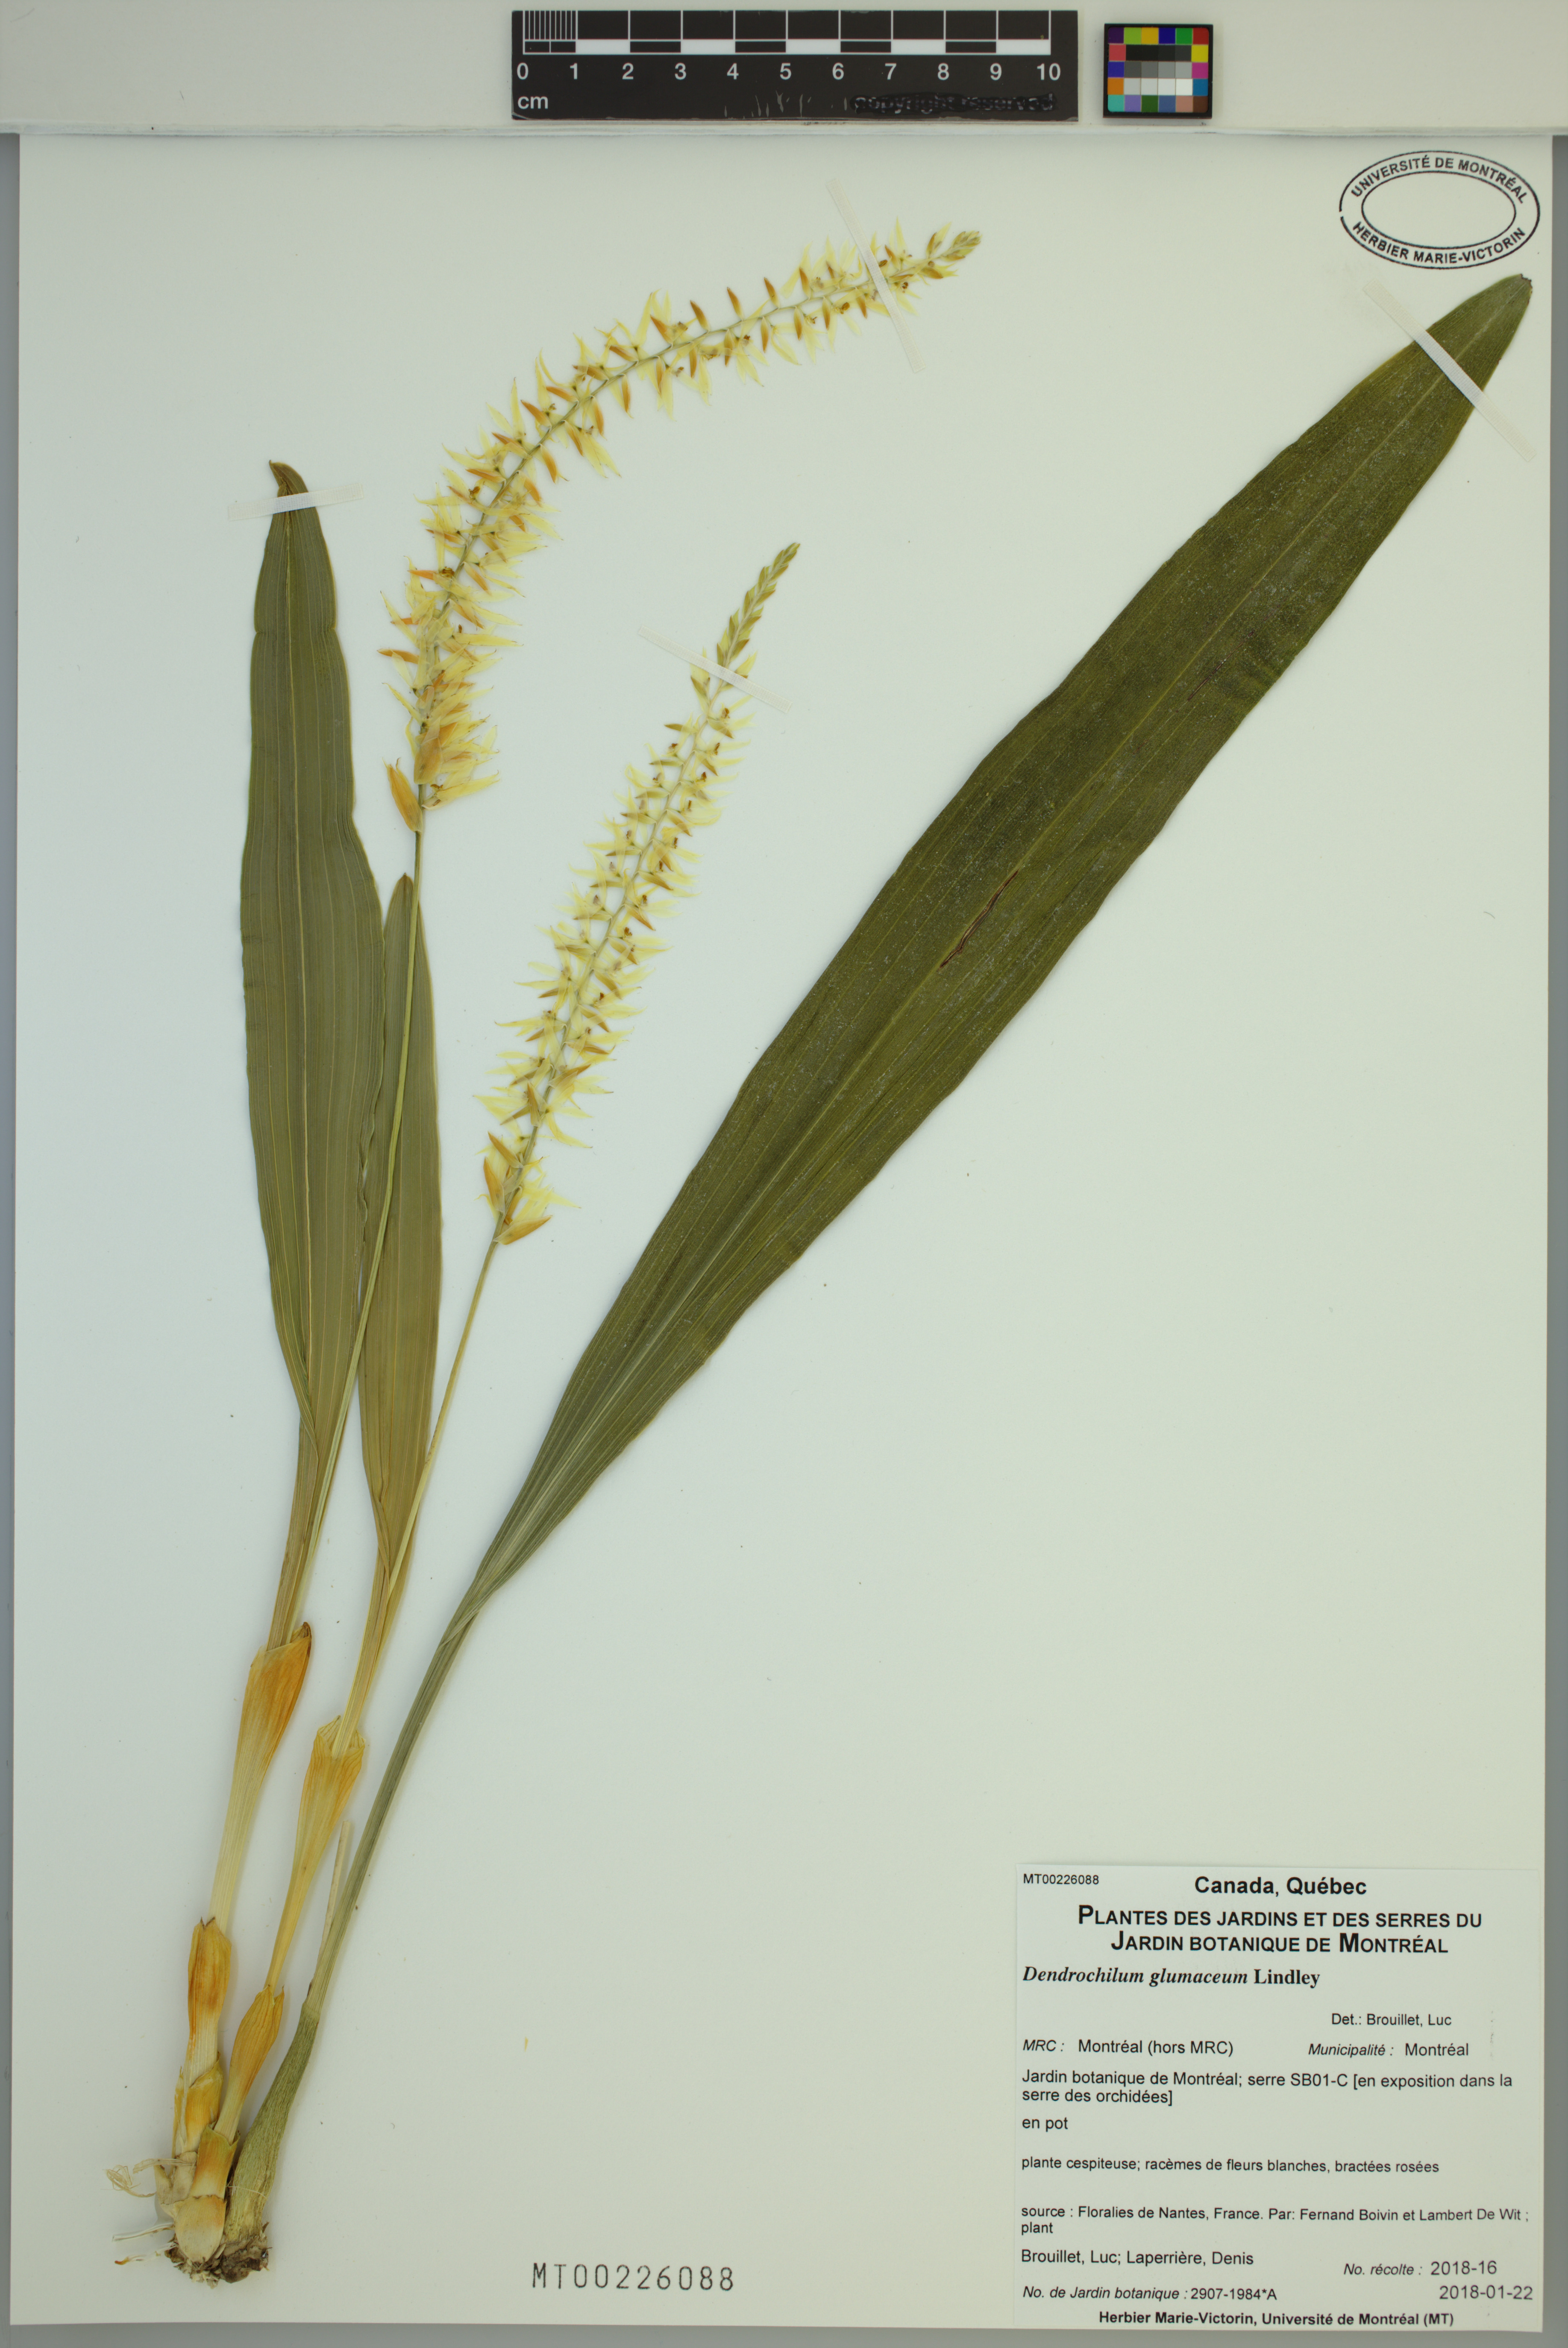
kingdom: Plantae
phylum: Tracheophyta
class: Liliopsida
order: Asparagales
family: Orchidaceae
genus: Coelogyne
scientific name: Coelogyne glumacea
